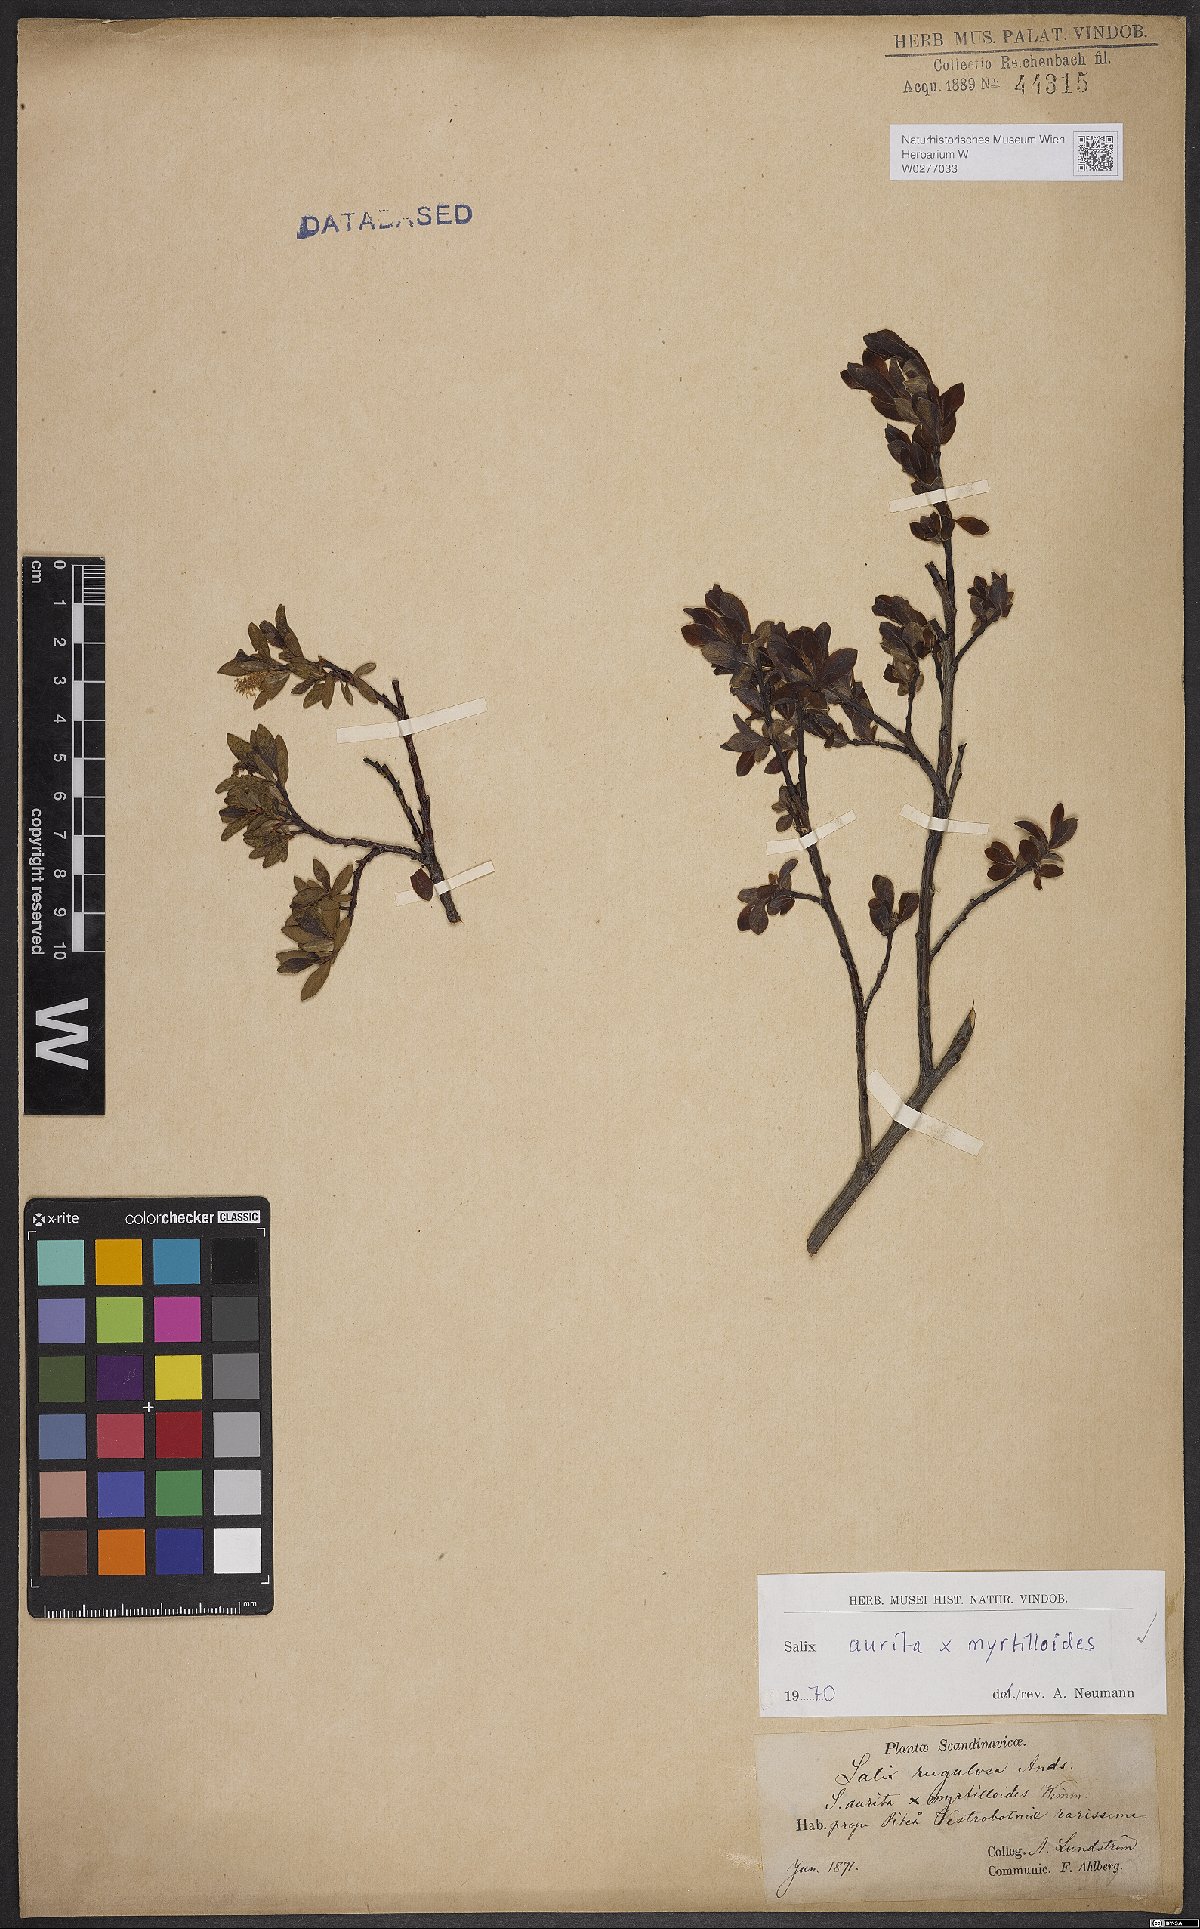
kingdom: Plantae
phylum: Tracheophyta
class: Magnoliopsida
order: Malpighiales
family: Salicaceae
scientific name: Salicaceae
